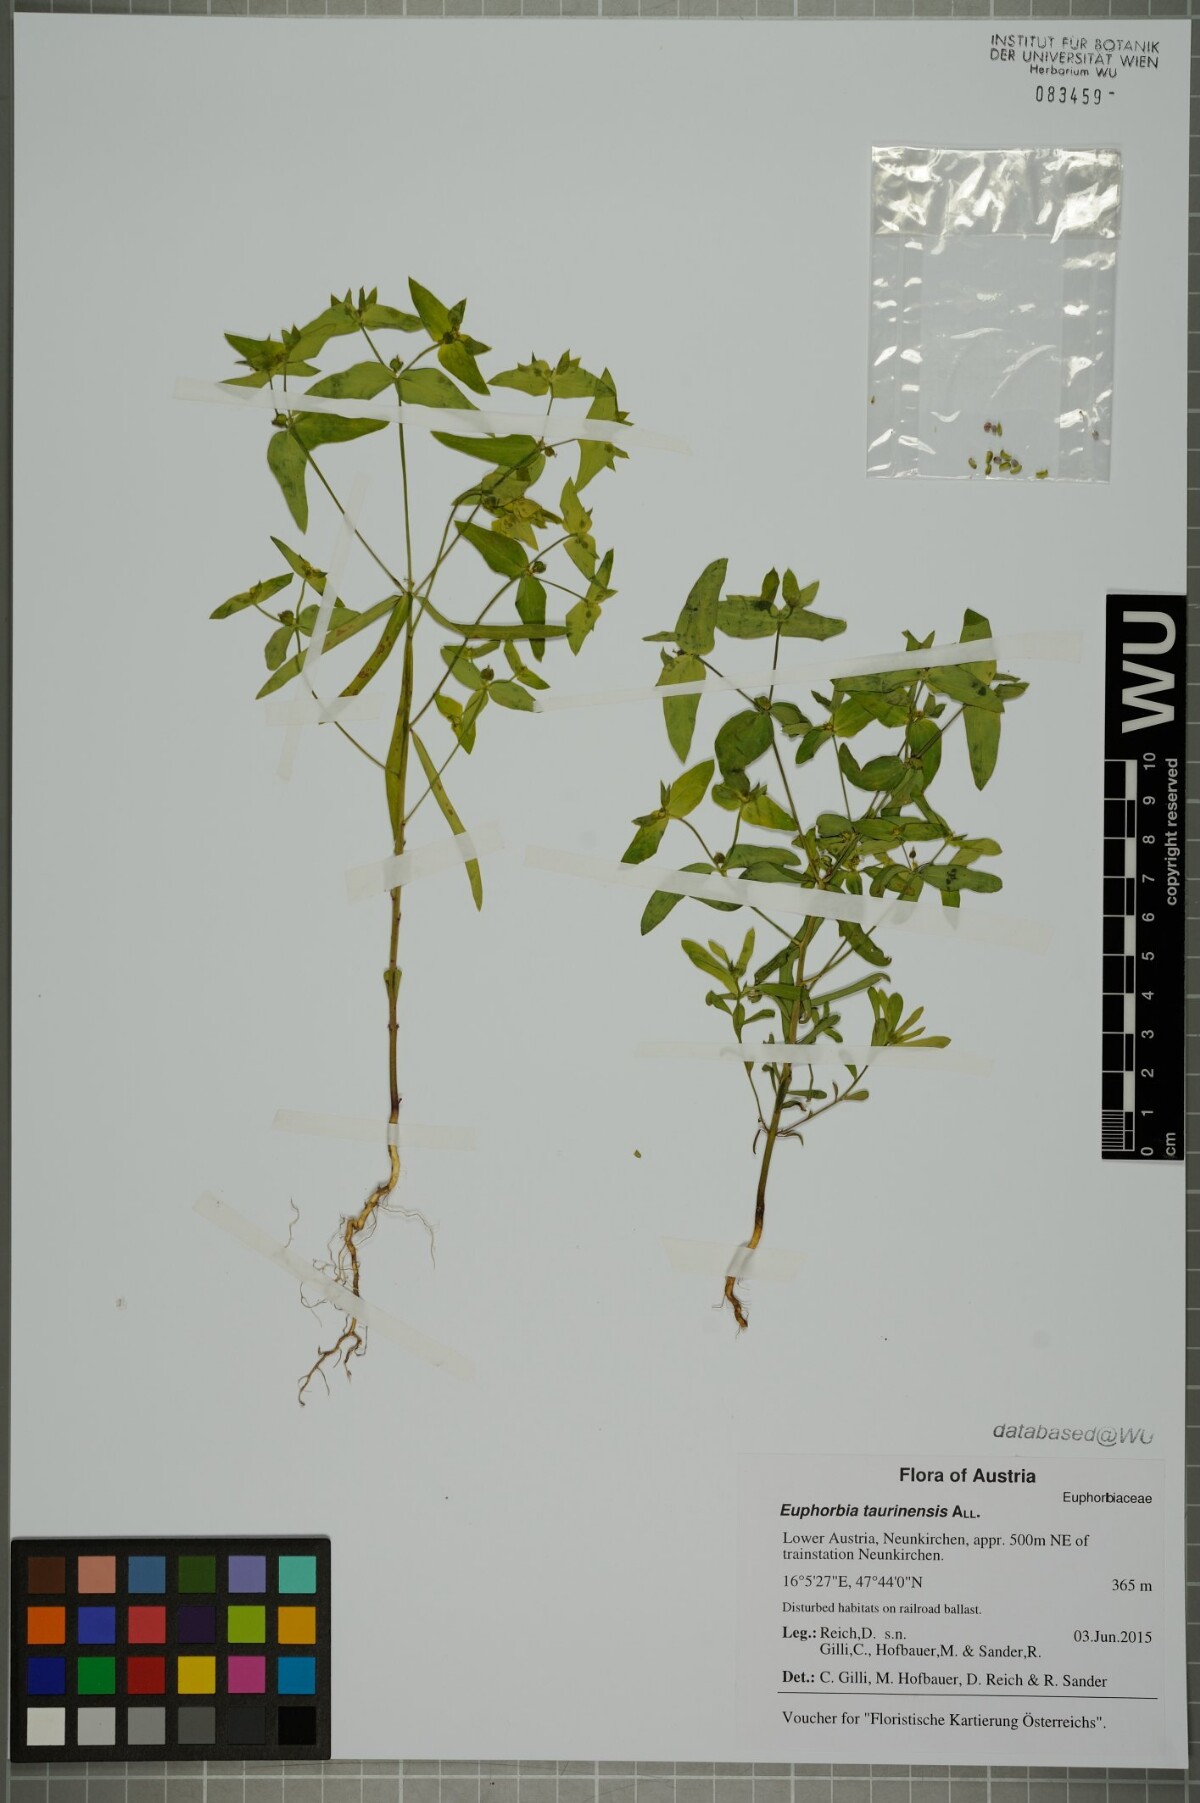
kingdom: Plantae
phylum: Tracheophyta
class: Magnoliopsida
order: Malpighiales
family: Euphorbiaceae
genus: Euphorbia
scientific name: Euphorbia taurinensis
